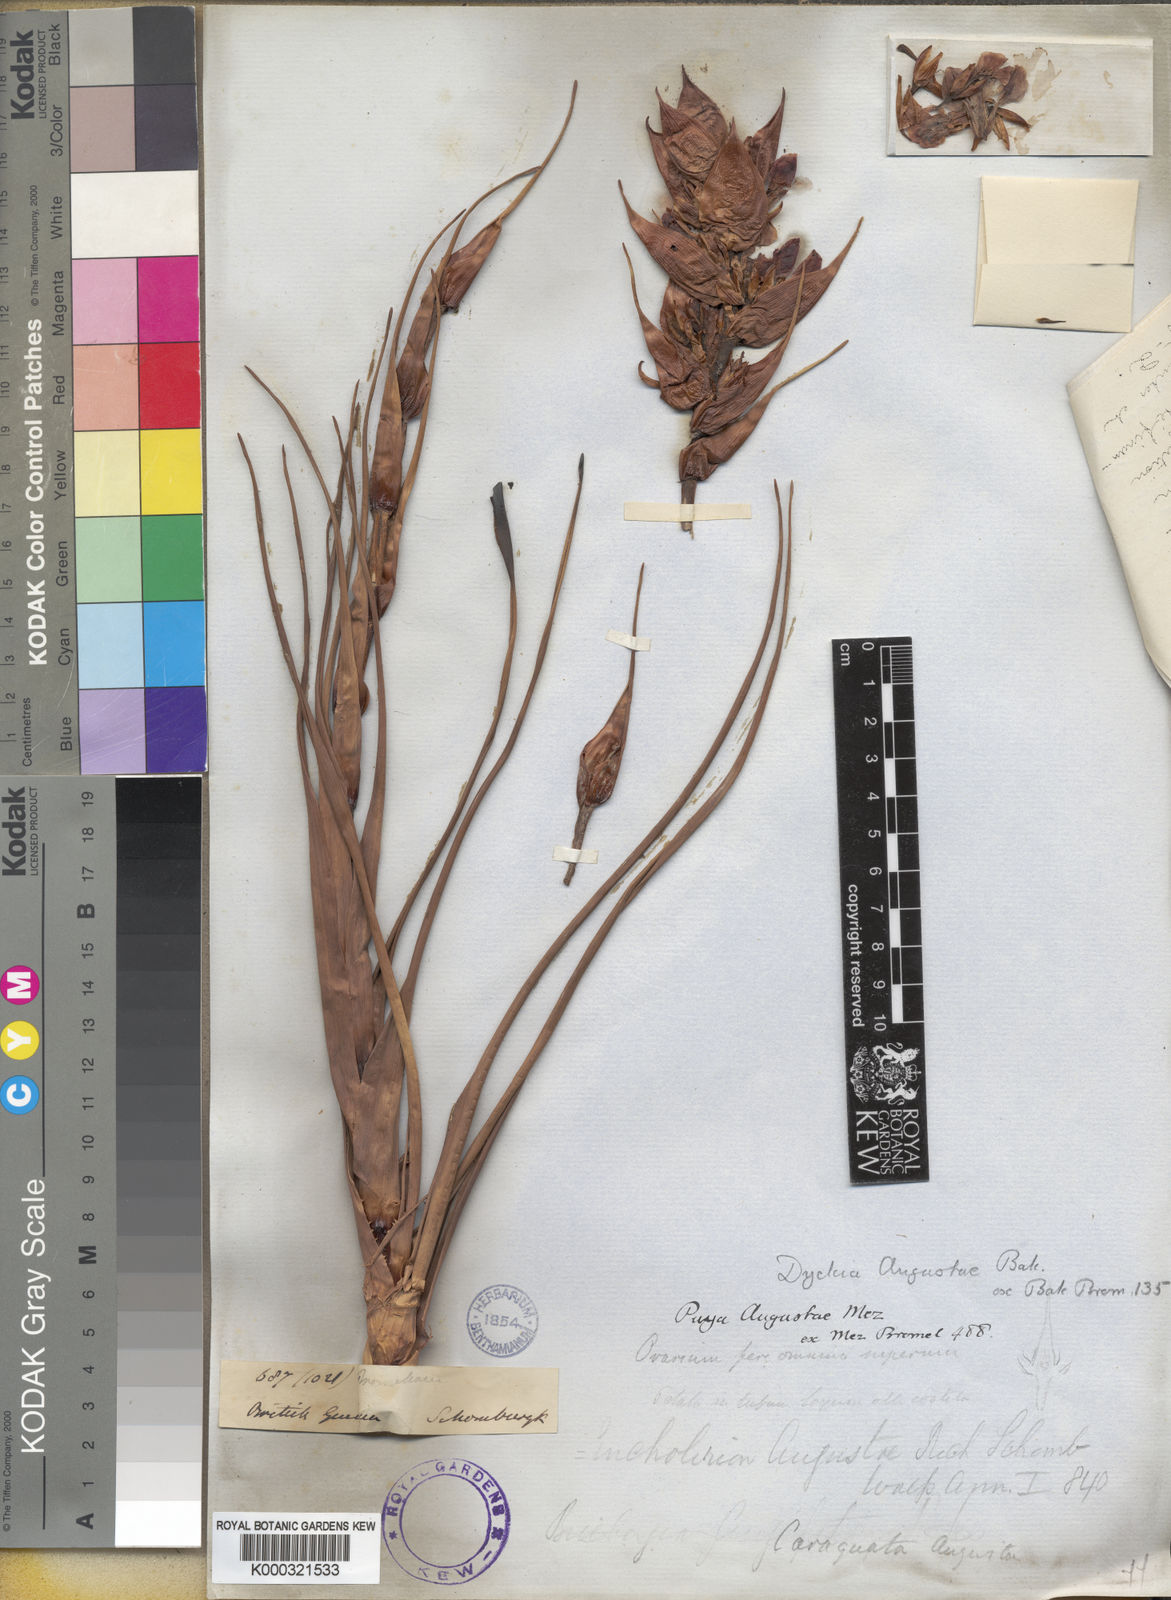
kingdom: Plantae
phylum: Tracheophyta
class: Liliopsida
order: Poales
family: Bromeliaceae
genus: Connellia
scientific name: Connellia augustae
